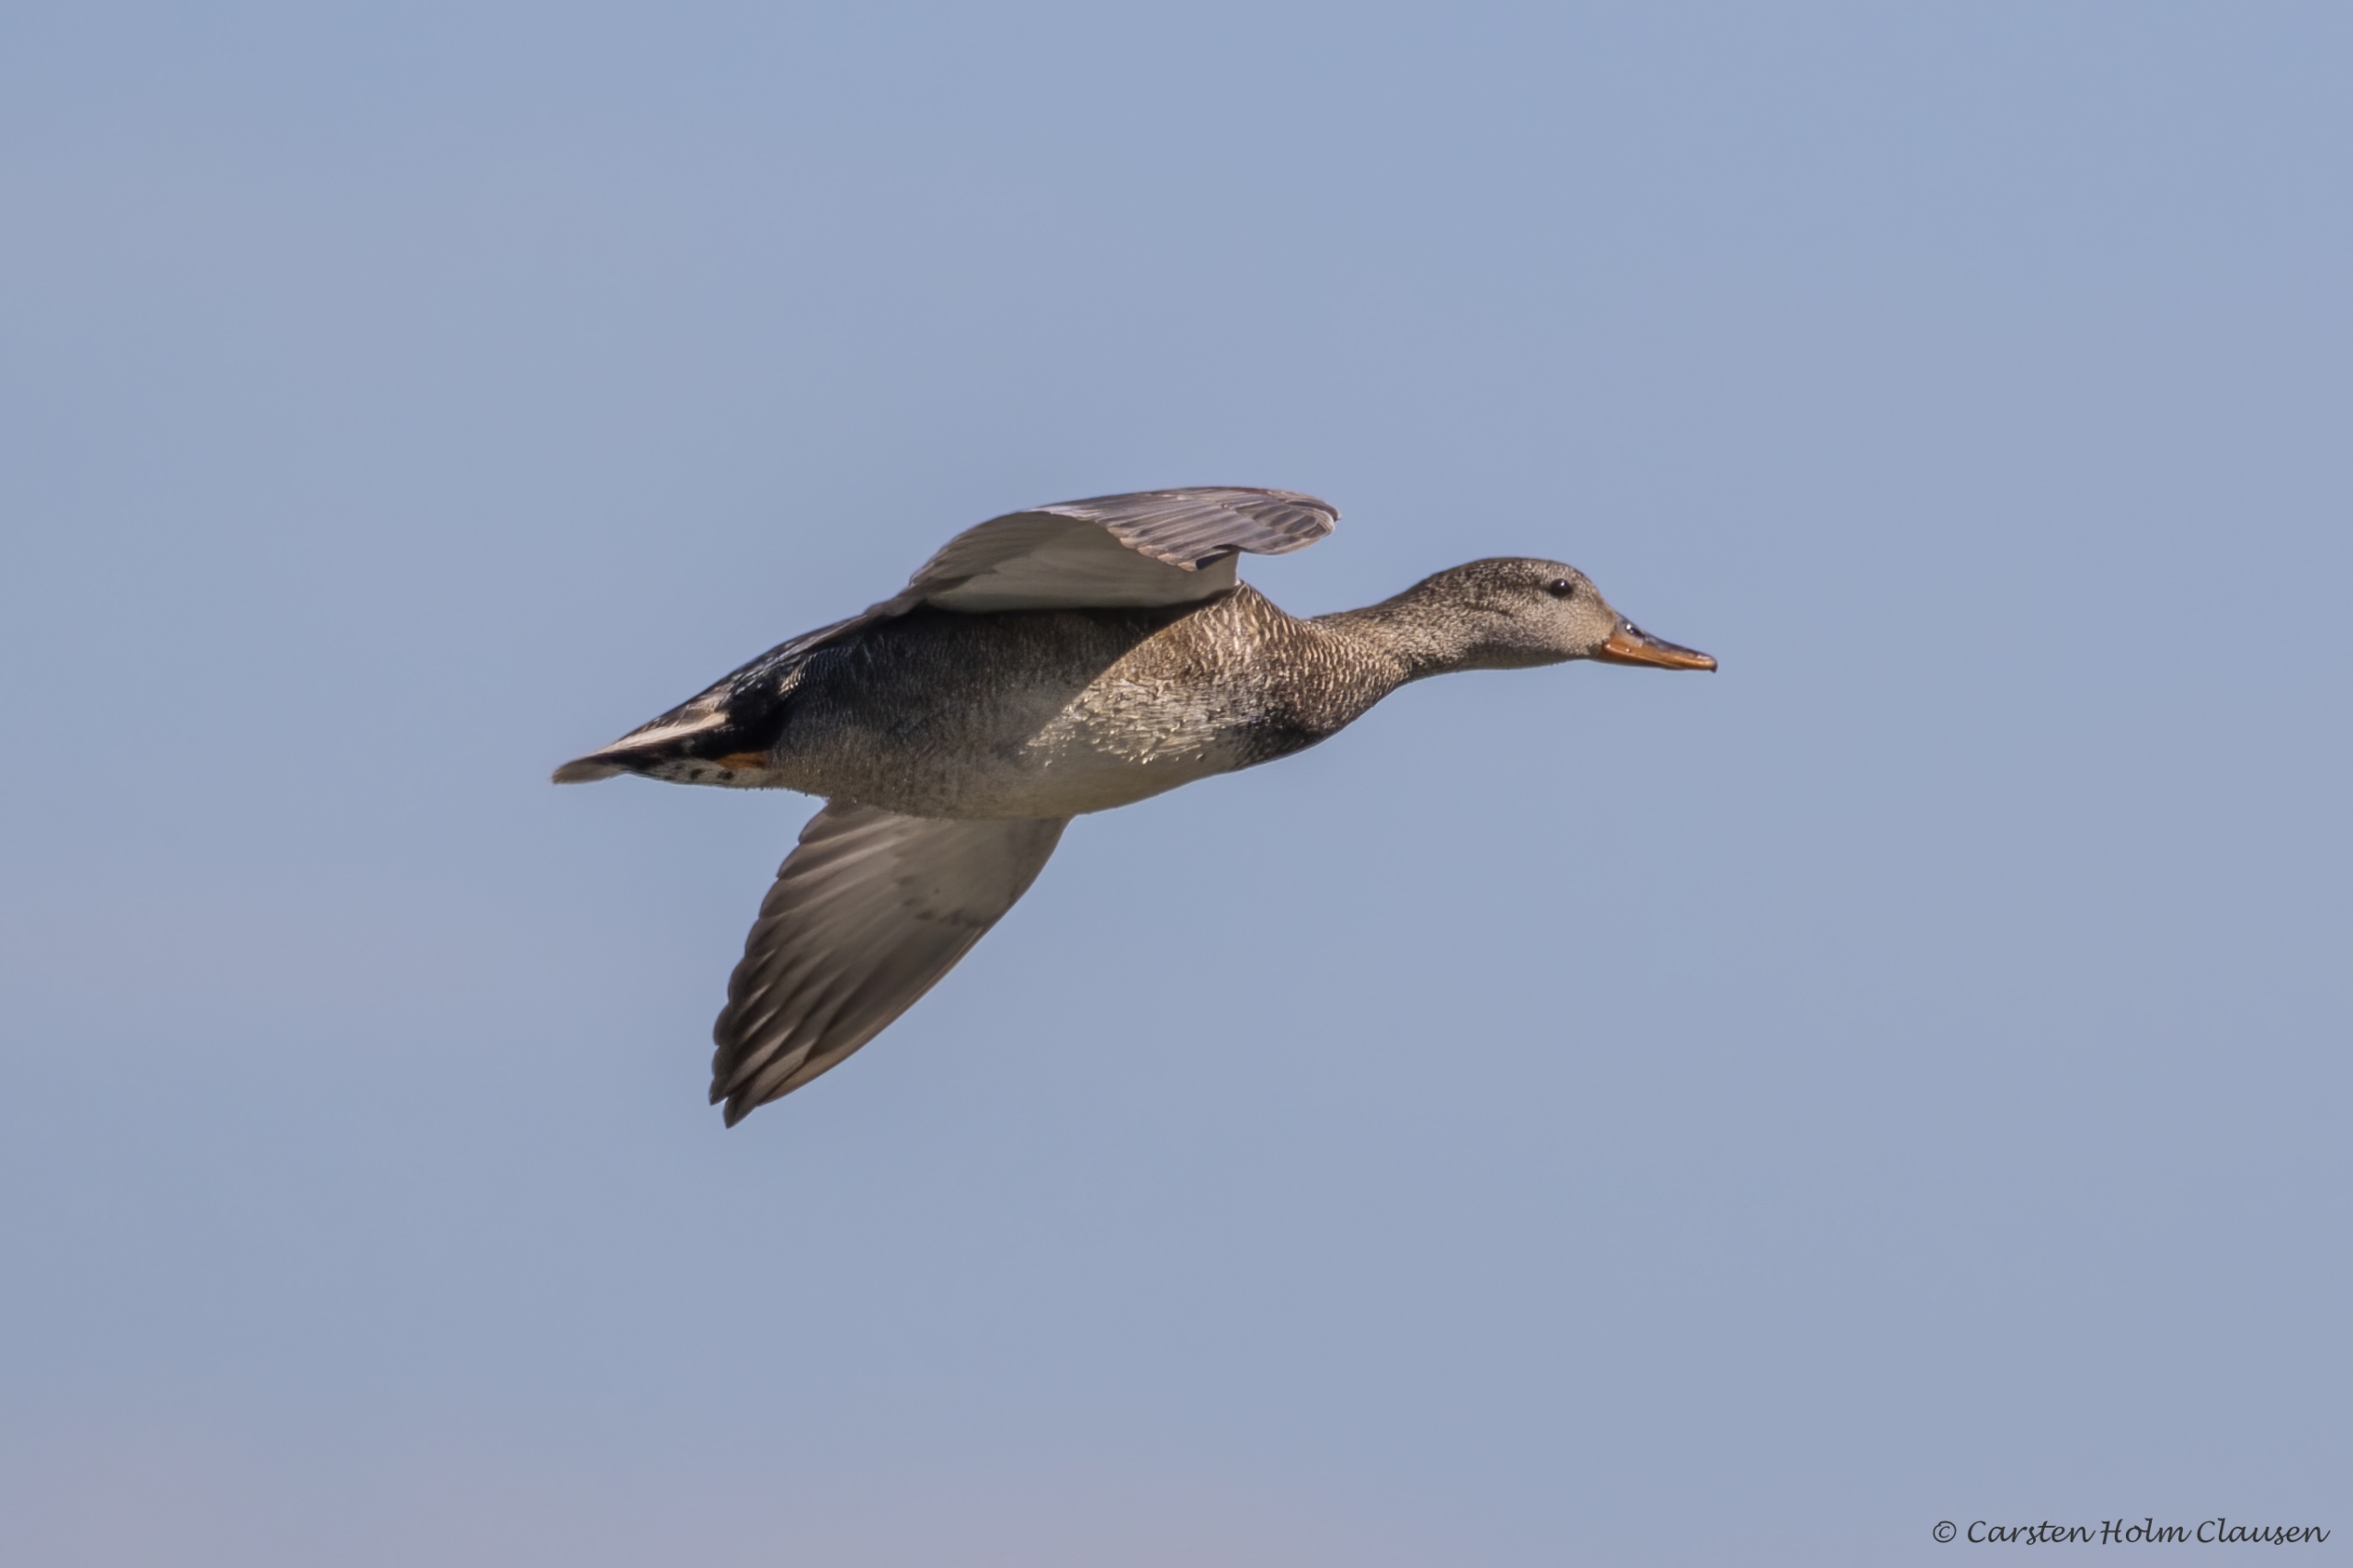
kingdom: Animalia
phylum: Chordata
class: Aves
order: Anseriformes
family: Anatidae
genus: Mareca
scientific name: Mareca strepera
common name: Knarand
